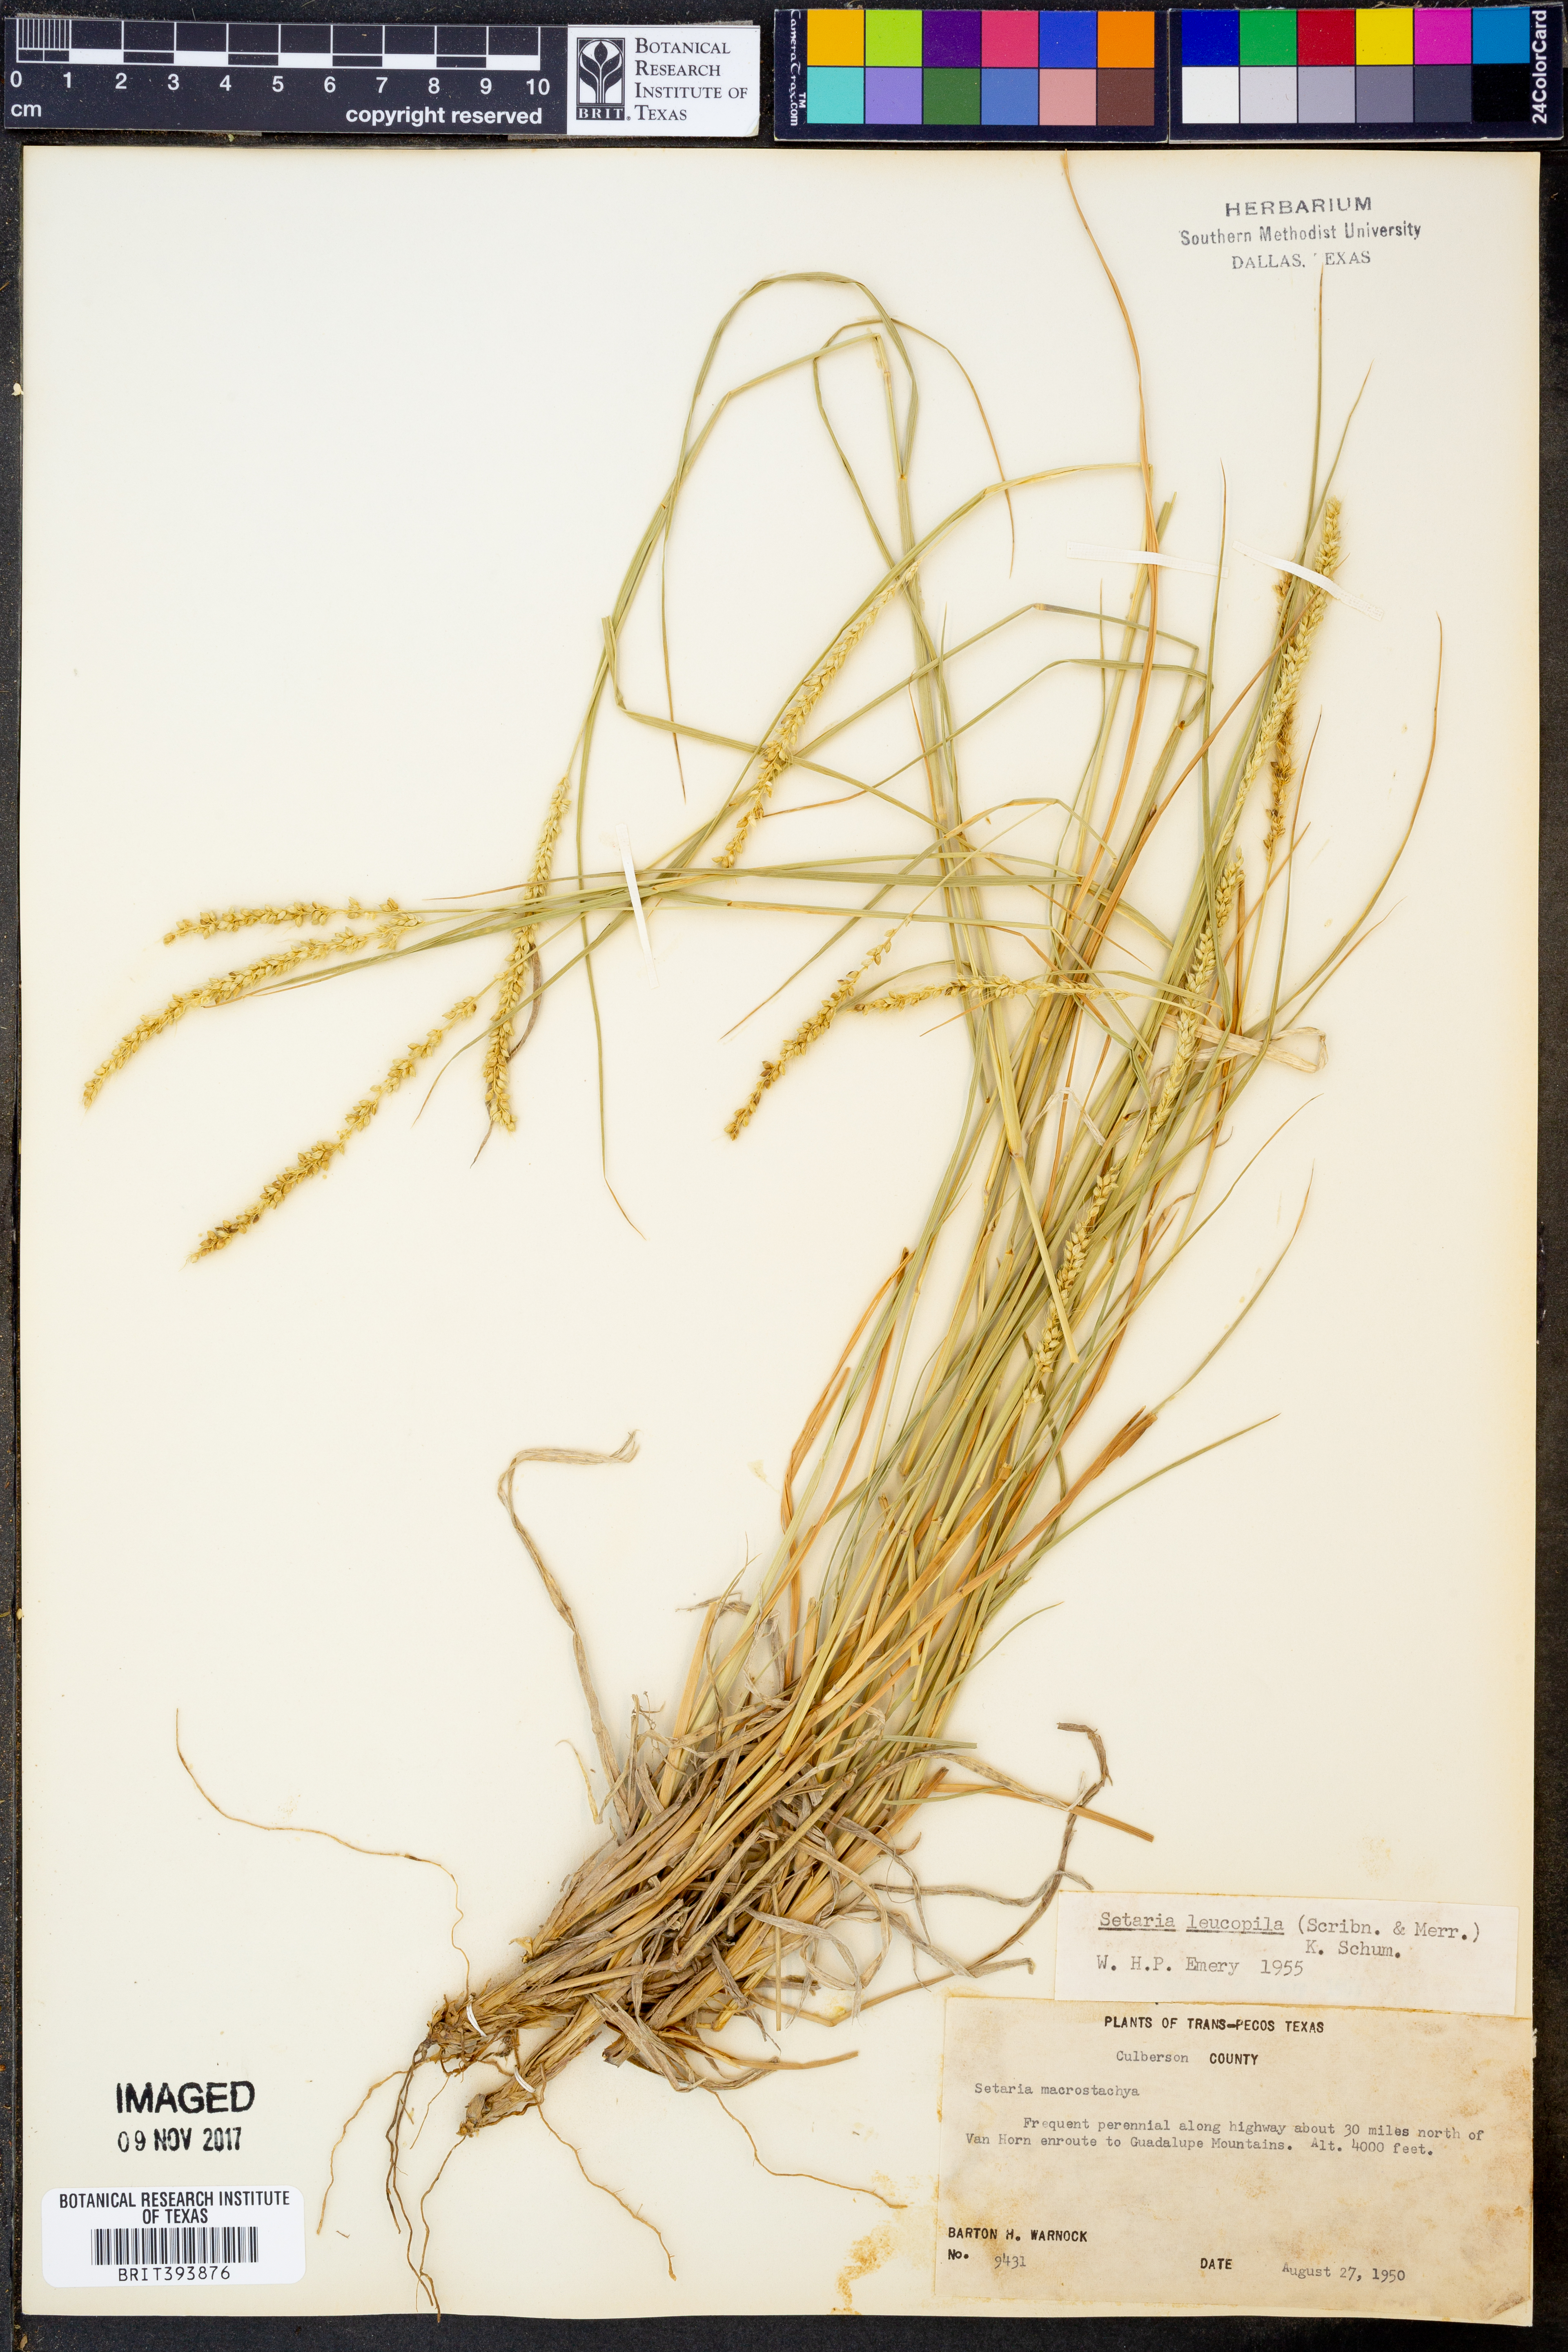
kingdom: Plantae
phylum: Tracheophyta
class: Liliopsida
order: Poales
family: Poaceae
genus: Setaria
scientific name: Setaria leucopila
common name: Plains bristle grass
